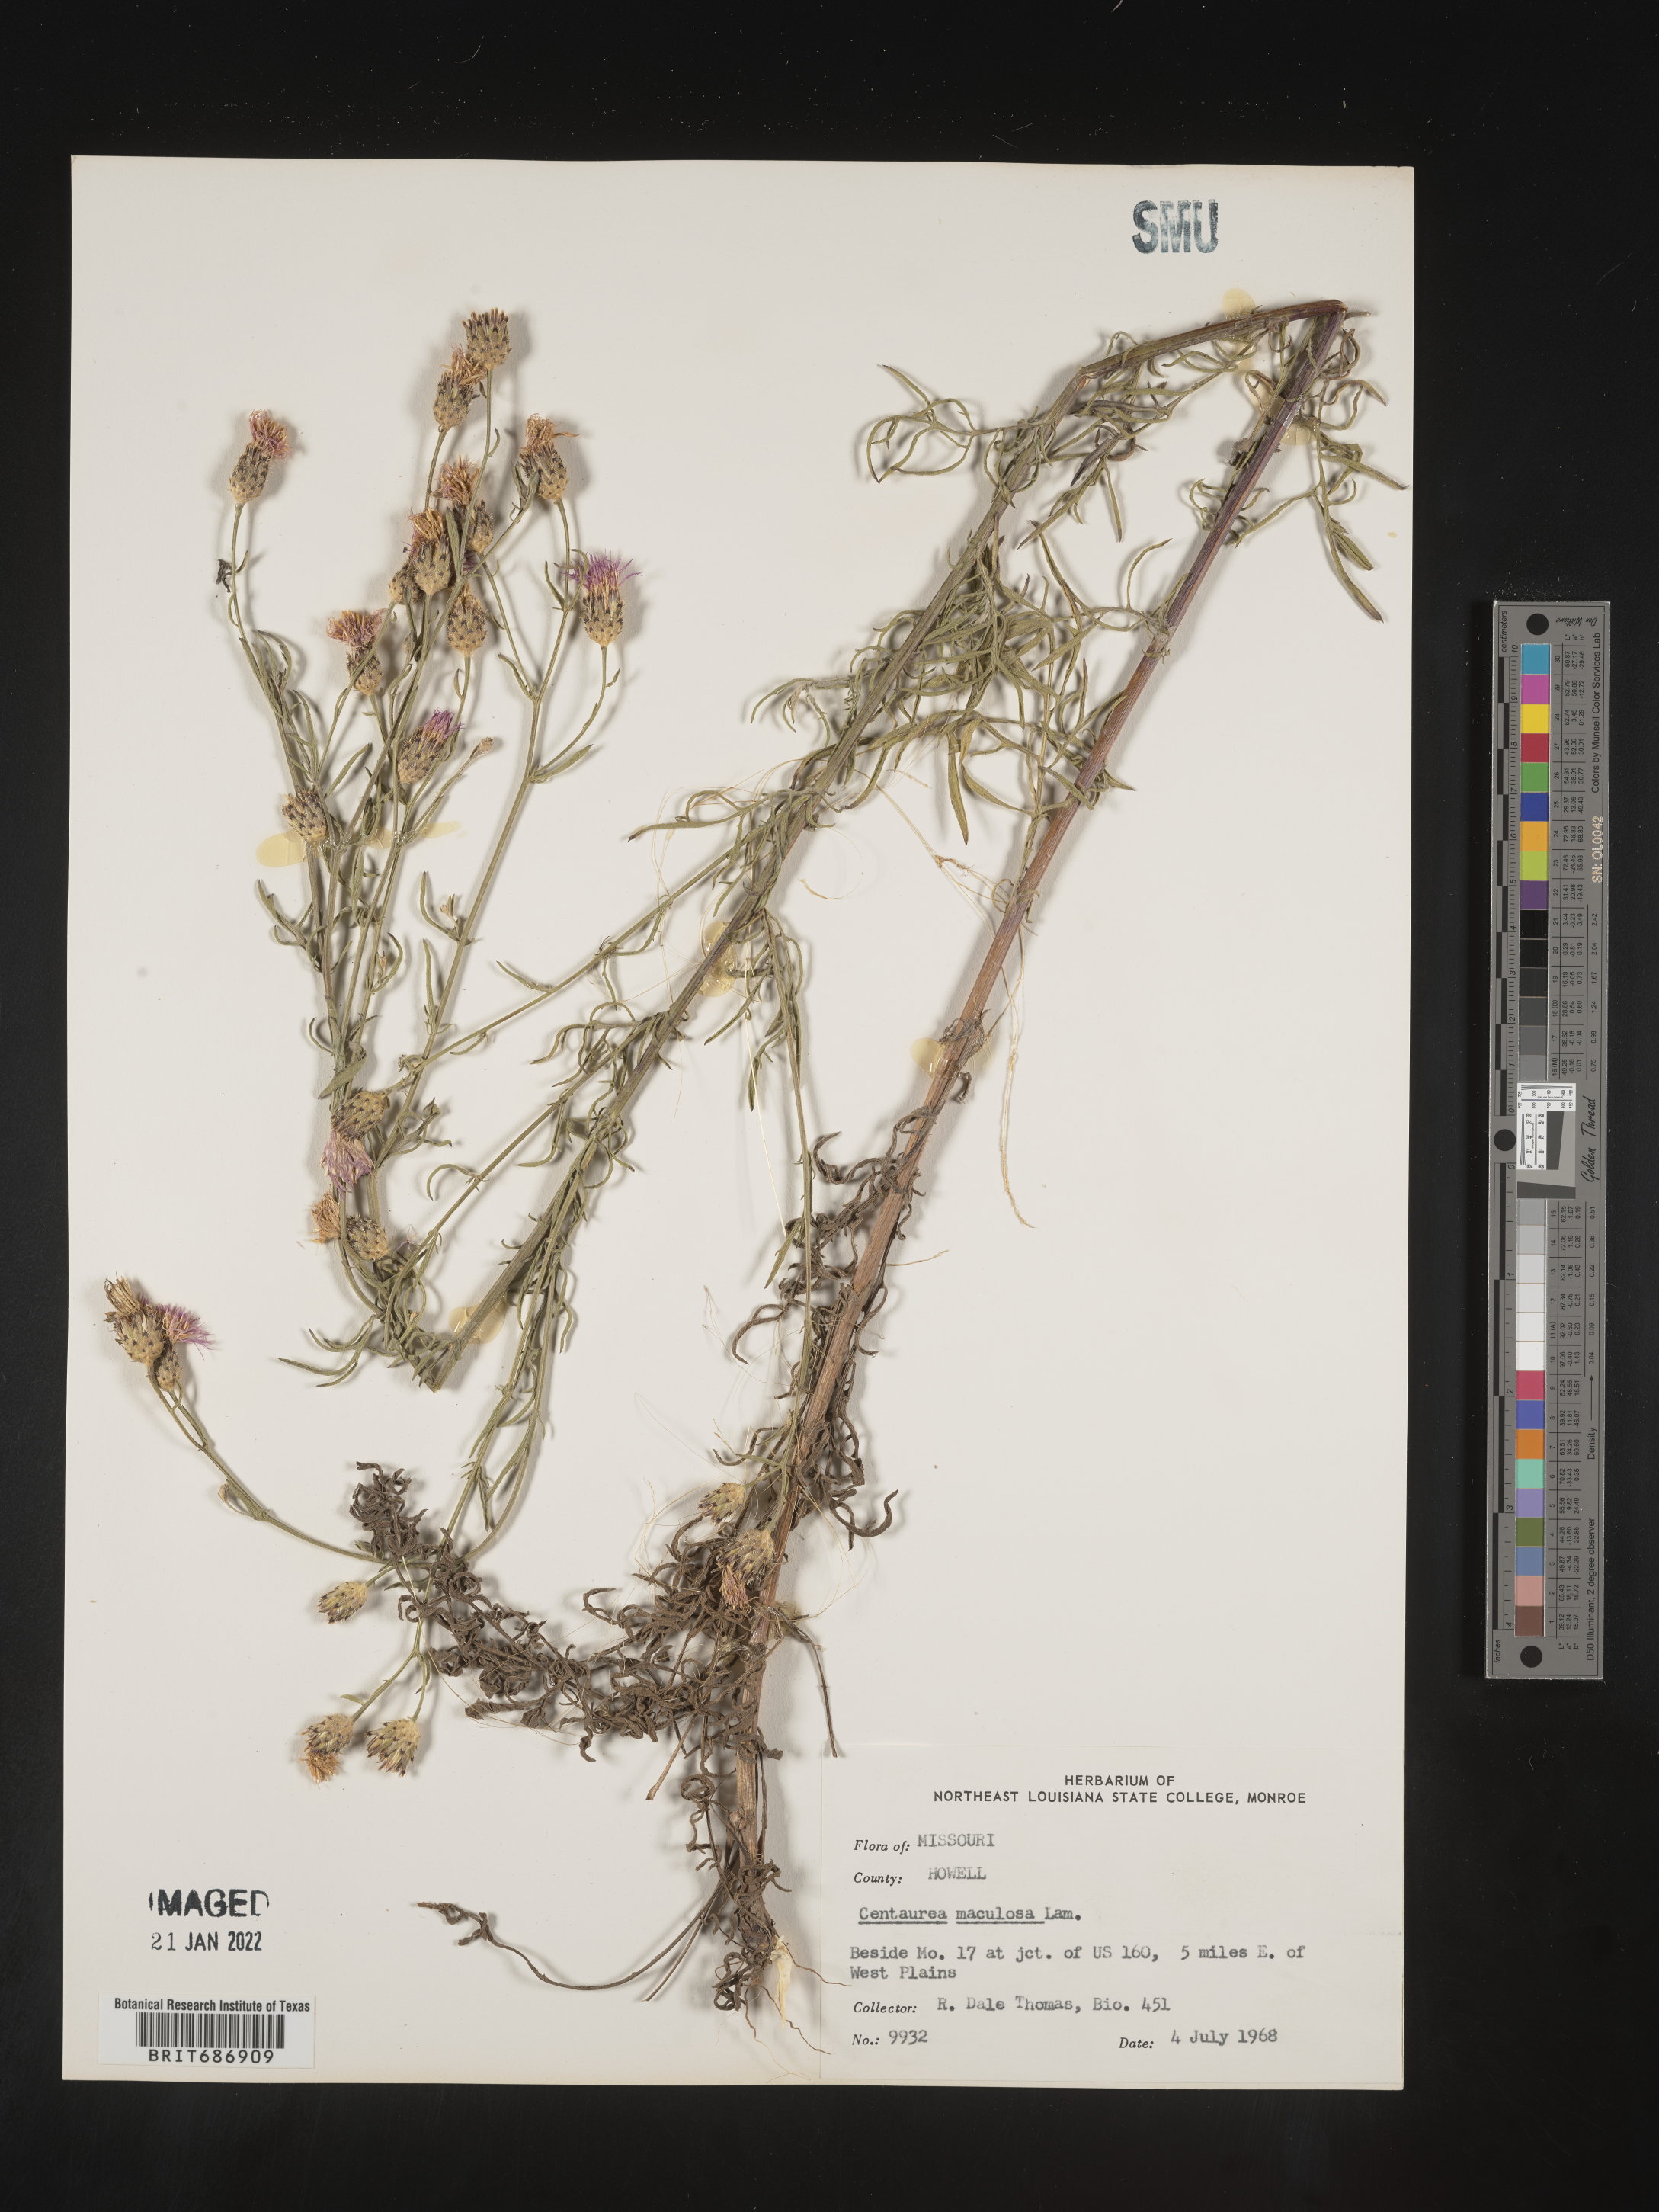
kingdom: Plantae
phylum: Tracheophyta
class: Magnoliopsida
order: Asterales
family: Asteraceae
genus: Centaurea
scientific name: Centaurea stoebe
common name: Spotted knapweed
